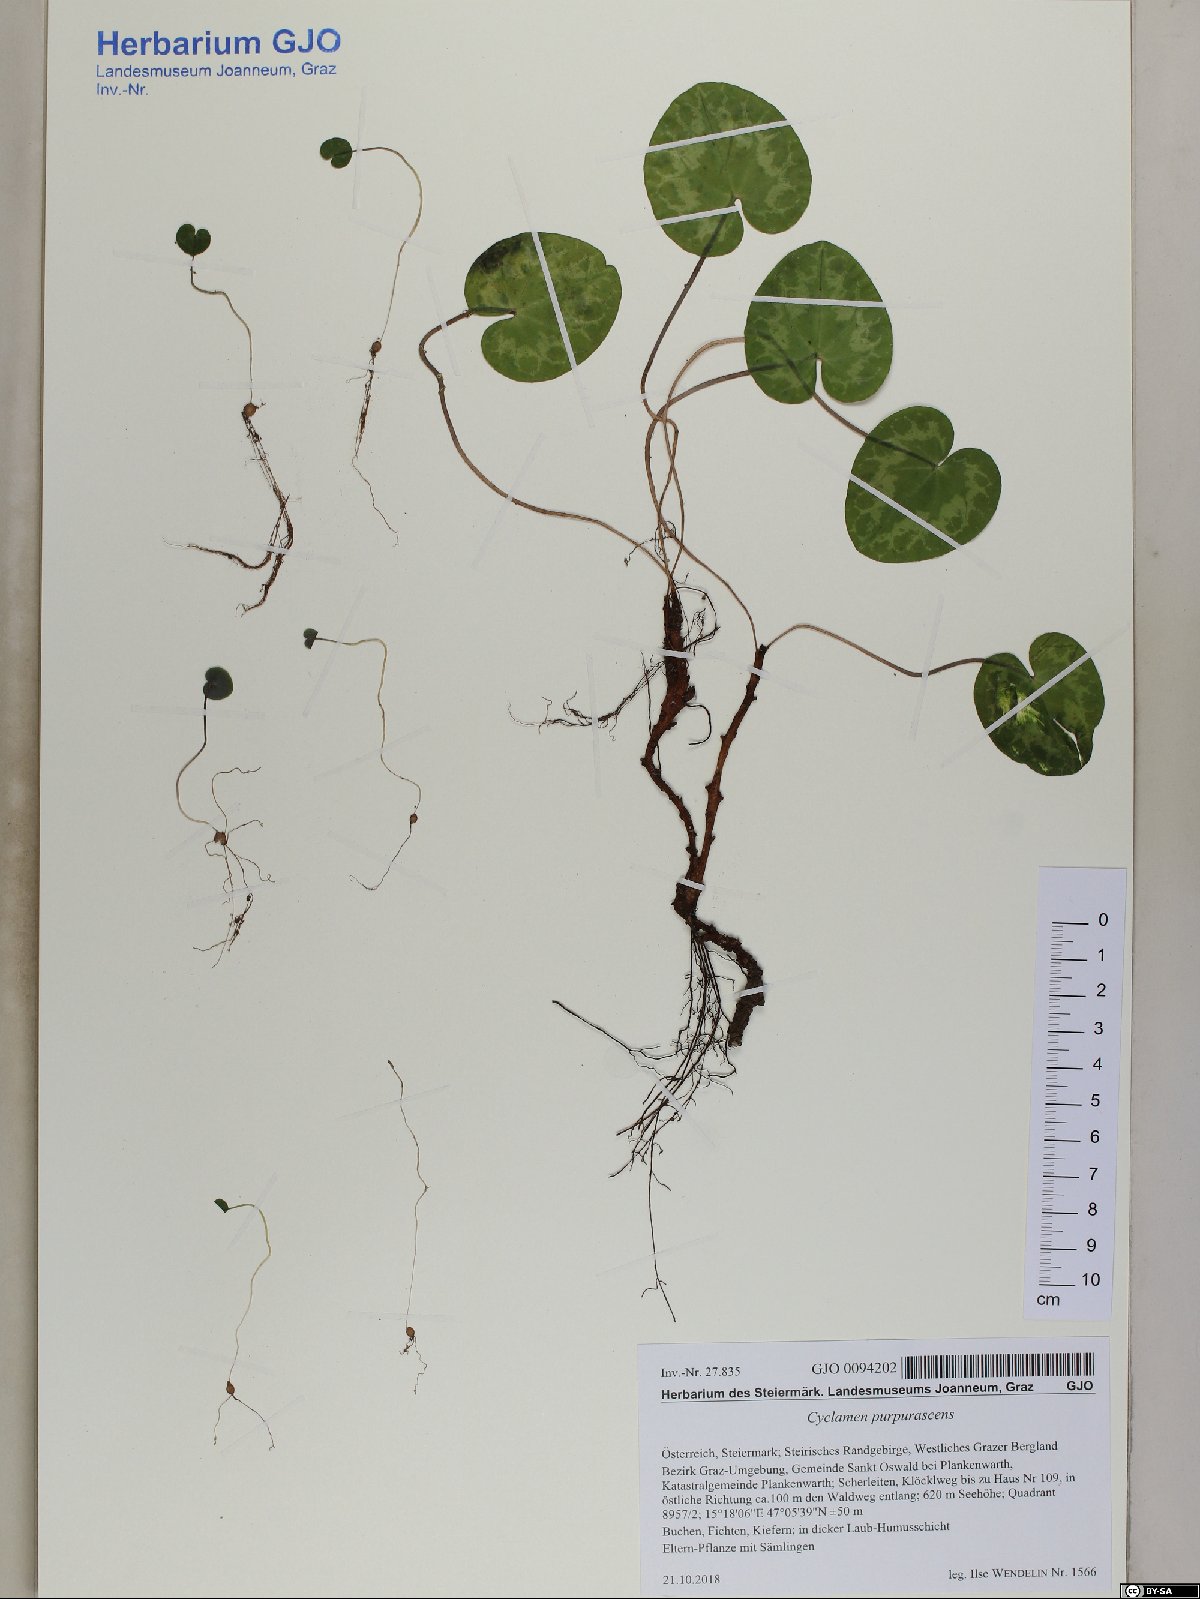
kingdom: Plantae
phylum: Tracheophyta
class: Magnoliopsida
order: Ericales
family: Primulaceae
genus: Cyclamen
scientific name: Cyclamen purpurascens
